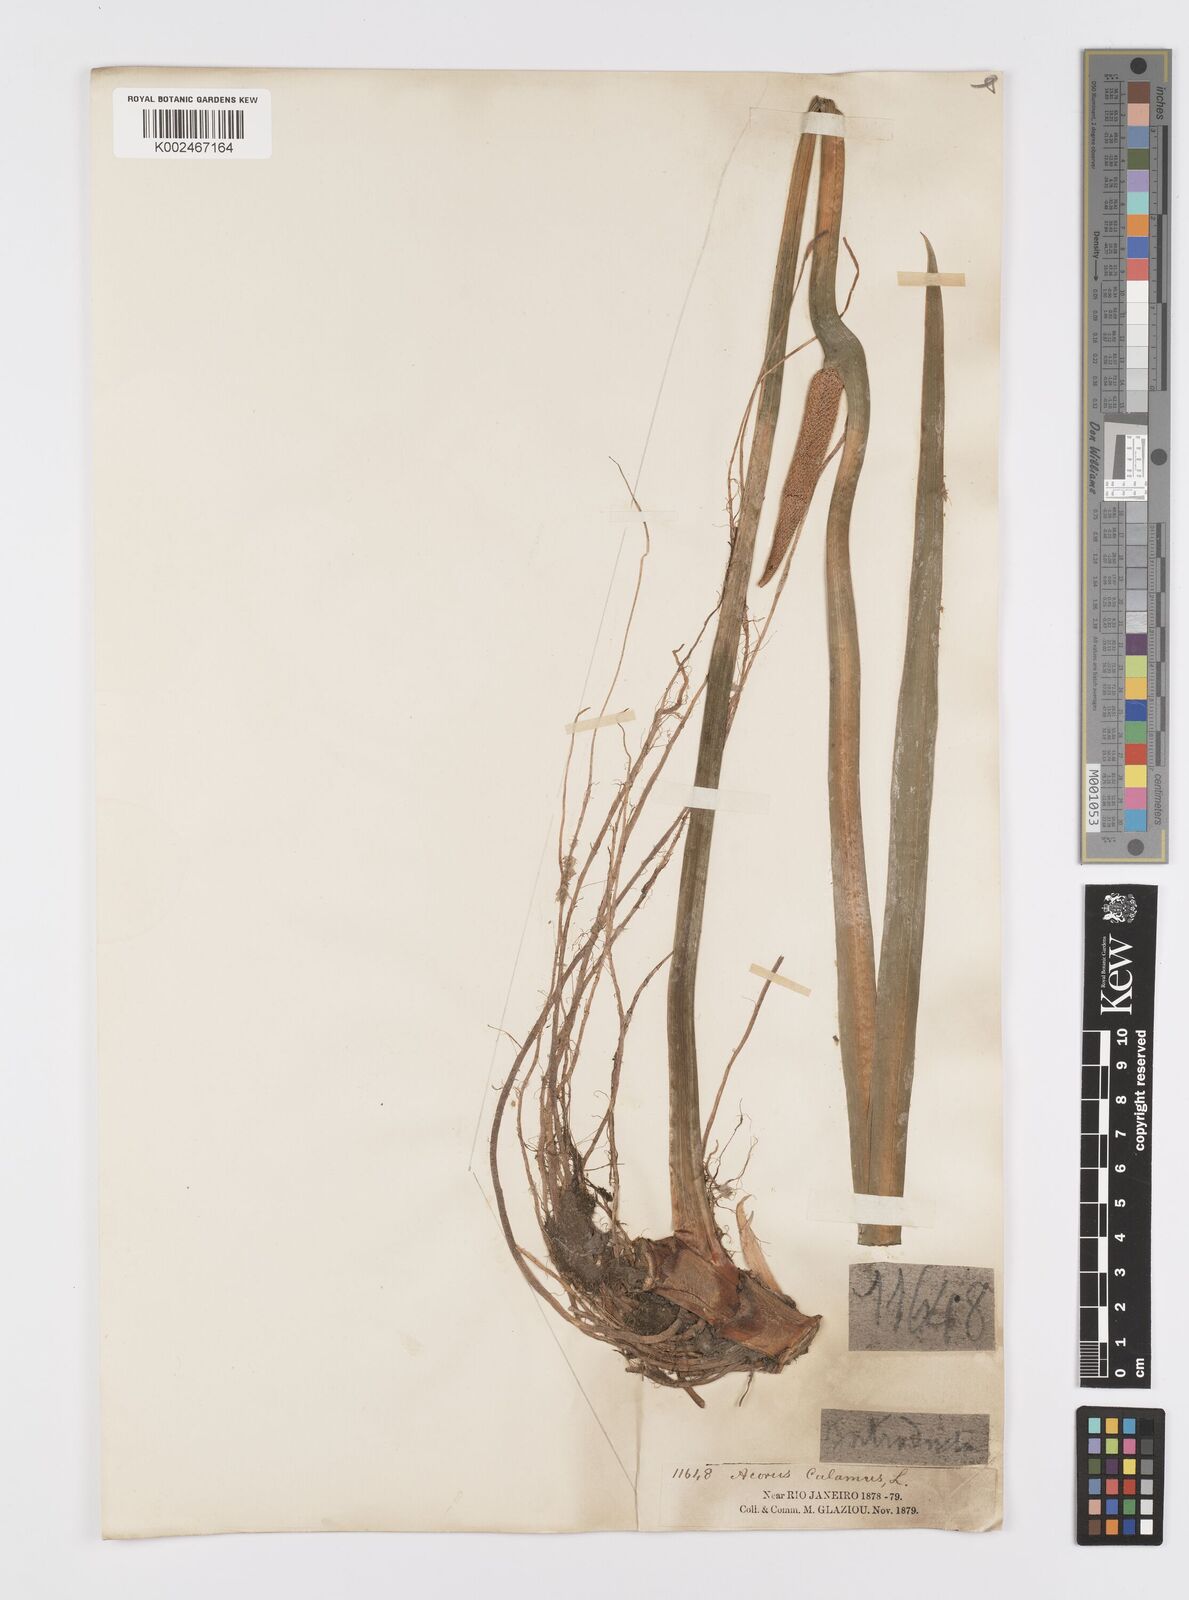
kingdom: Plantae
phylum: Tracheophyta
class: Liliopsida
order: Acorales
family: Acoraceae
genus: Acorus
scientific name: Acorus calamus
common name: Sweet-flag
